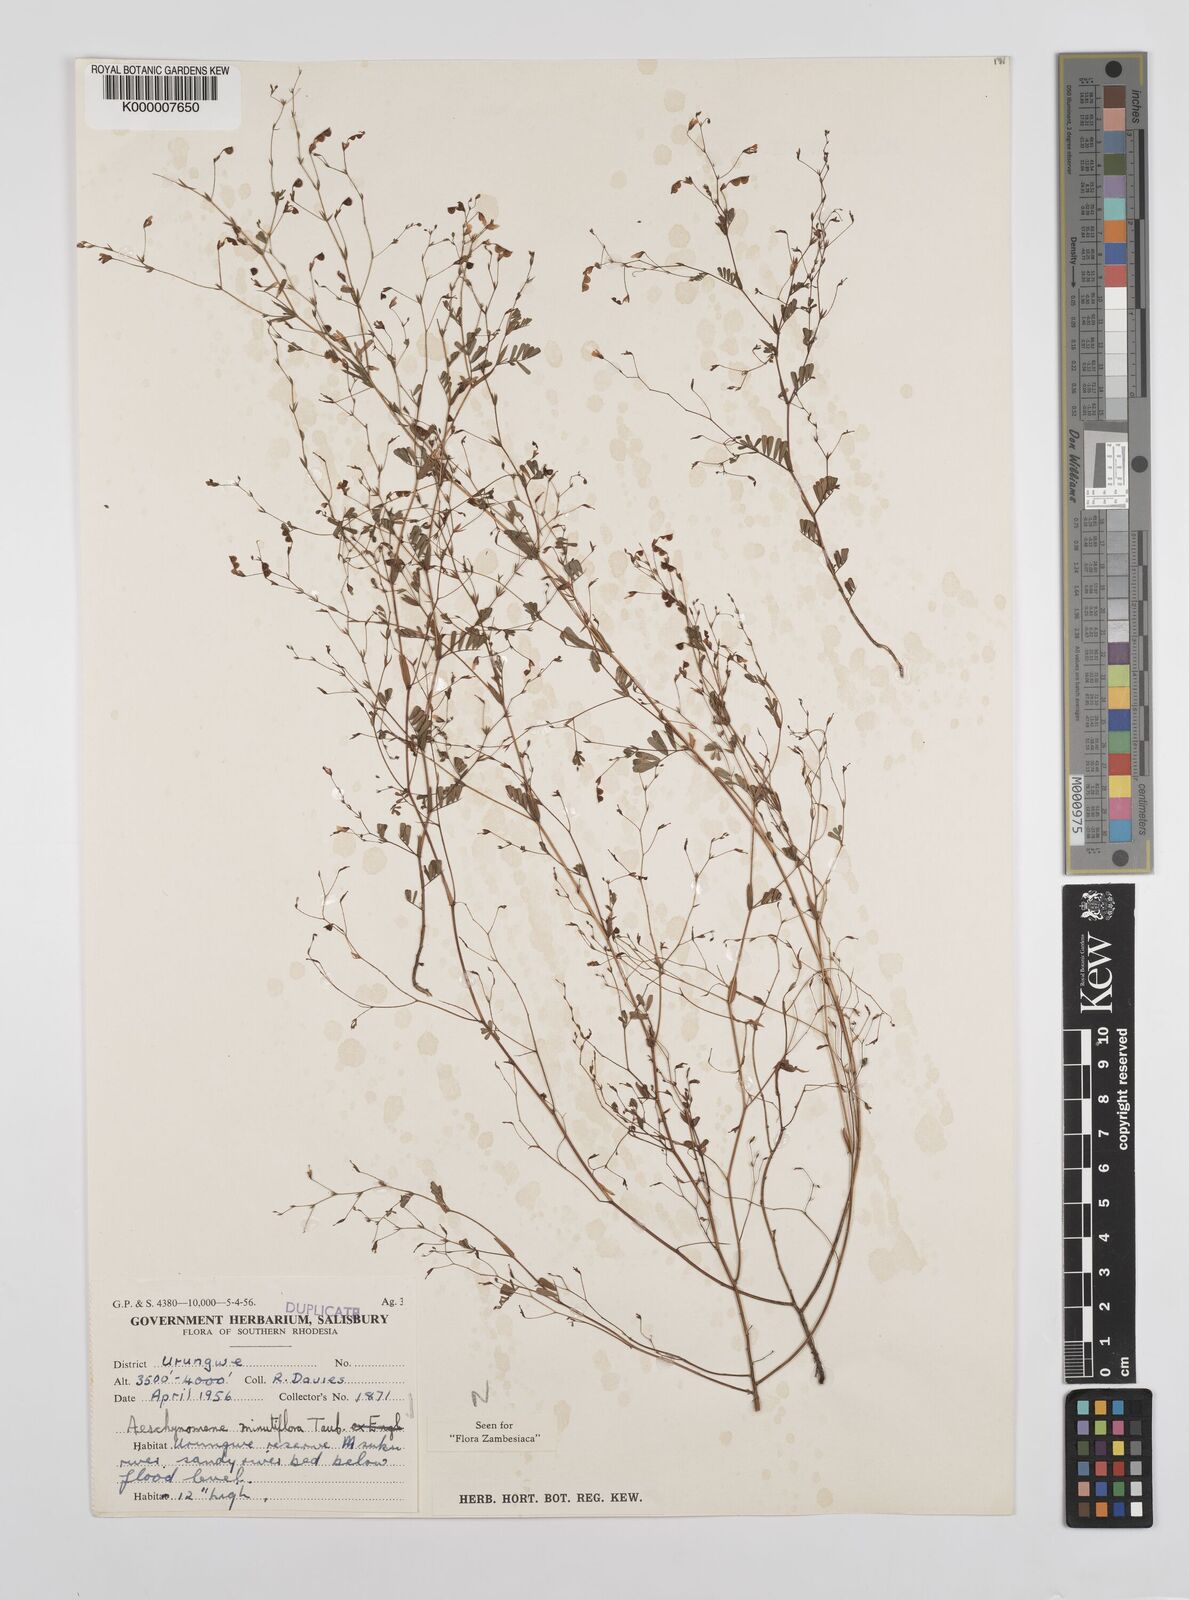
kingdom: Plantae
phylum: Tracheophyta
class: Magnoliopsida
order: Fabales
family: Fabaceae
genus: Aeschynomene
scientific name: Aeschynomene minutiflora
